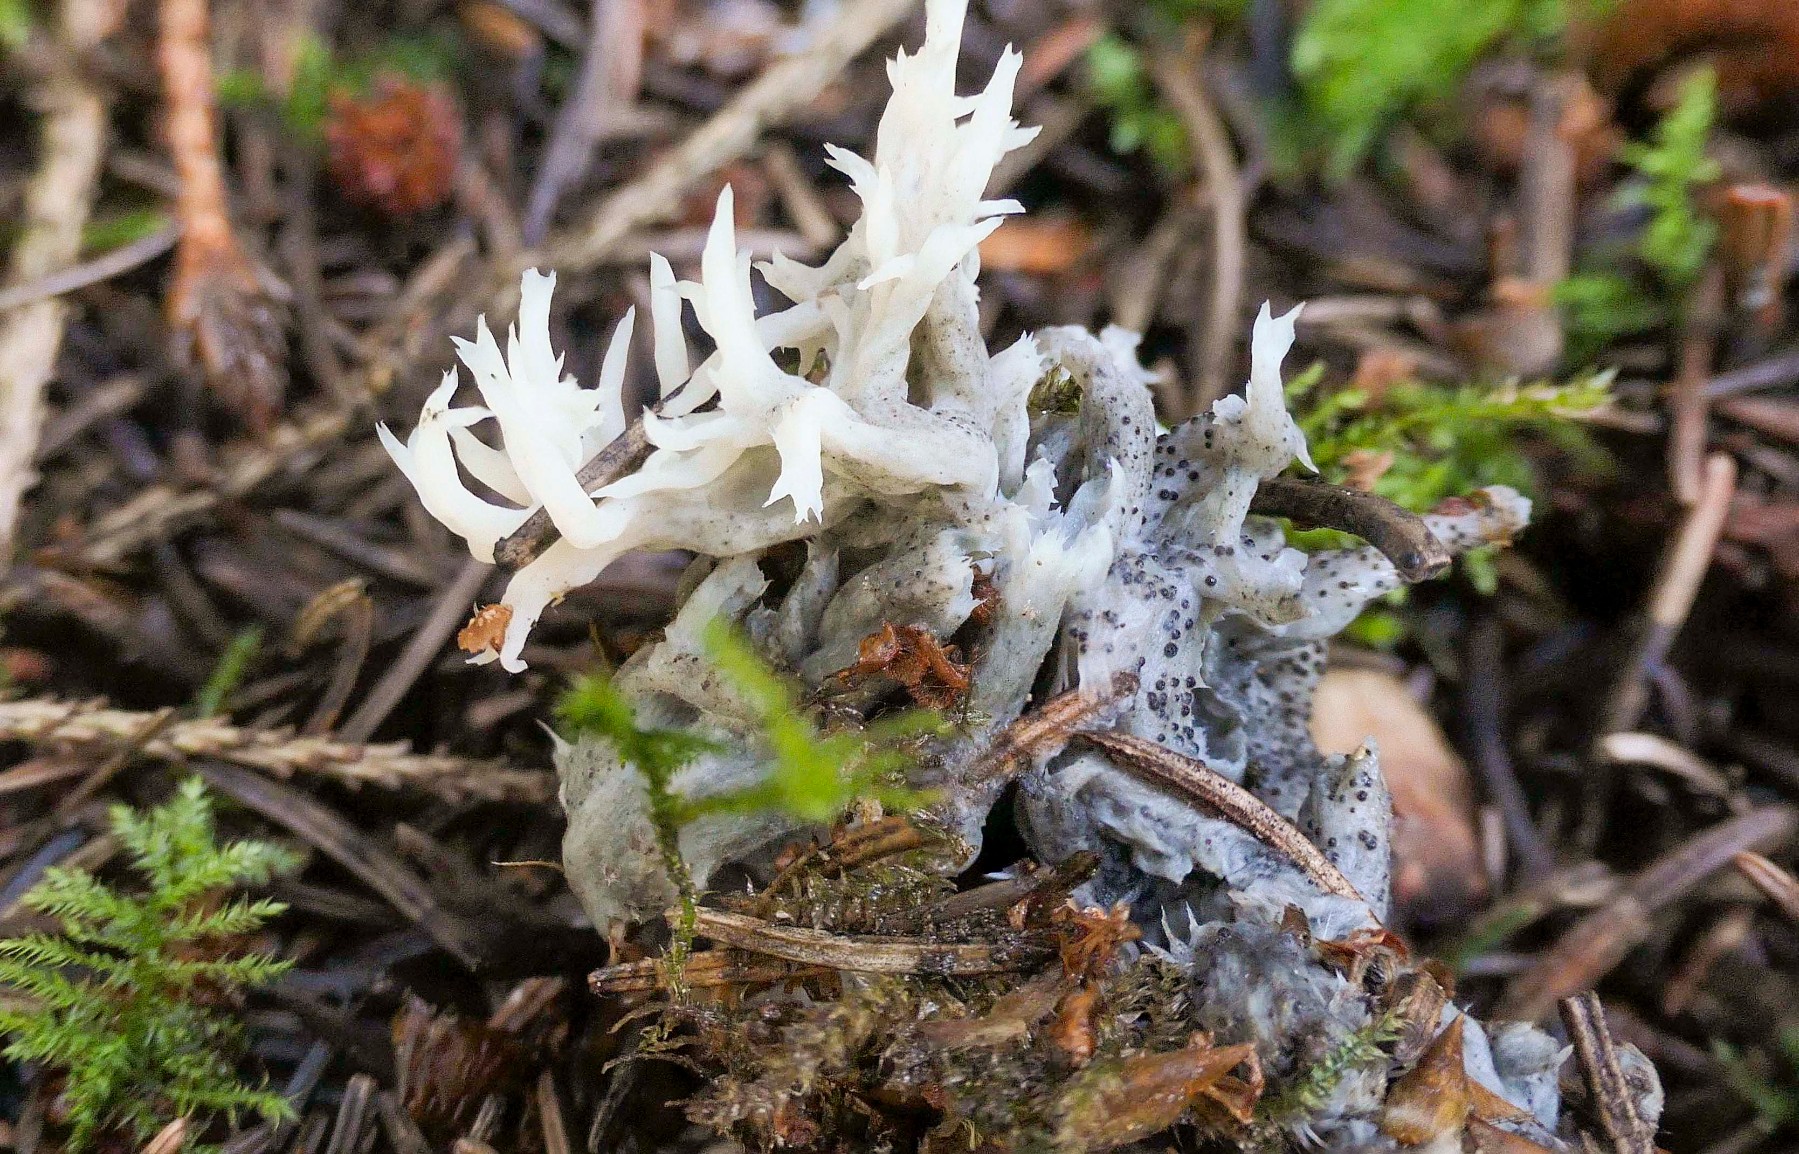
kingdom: Fungi
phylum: Ascomycota
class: Sordariomycetes
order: Sordariales
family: Helminthosphaeriaceae
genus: Helminthosphaeria
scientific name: Helminthosphaeria clavariarum
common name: trold-svampesnyltekerne
